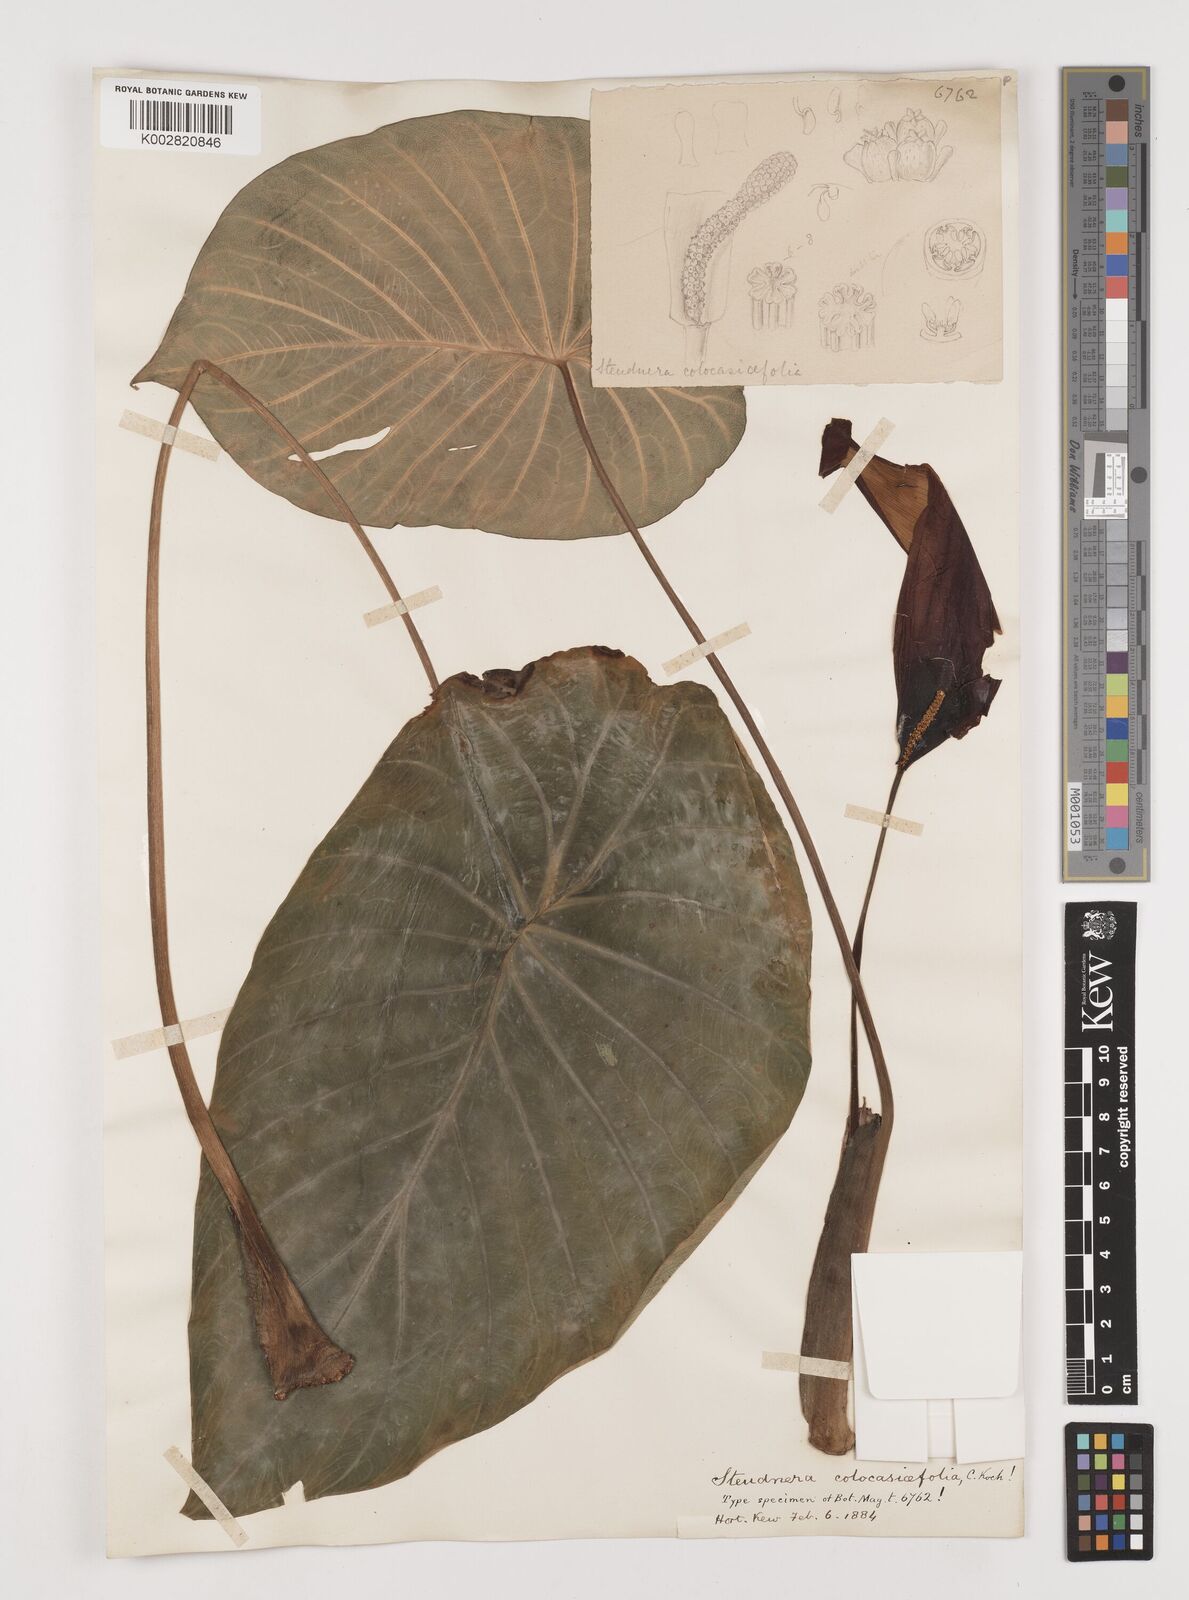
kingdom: Plantae
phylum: Tracheophyta
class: Liliopsida
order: Alismatales
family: Araceae
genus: Steudnera
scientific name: Steudnera colocasiifolia
